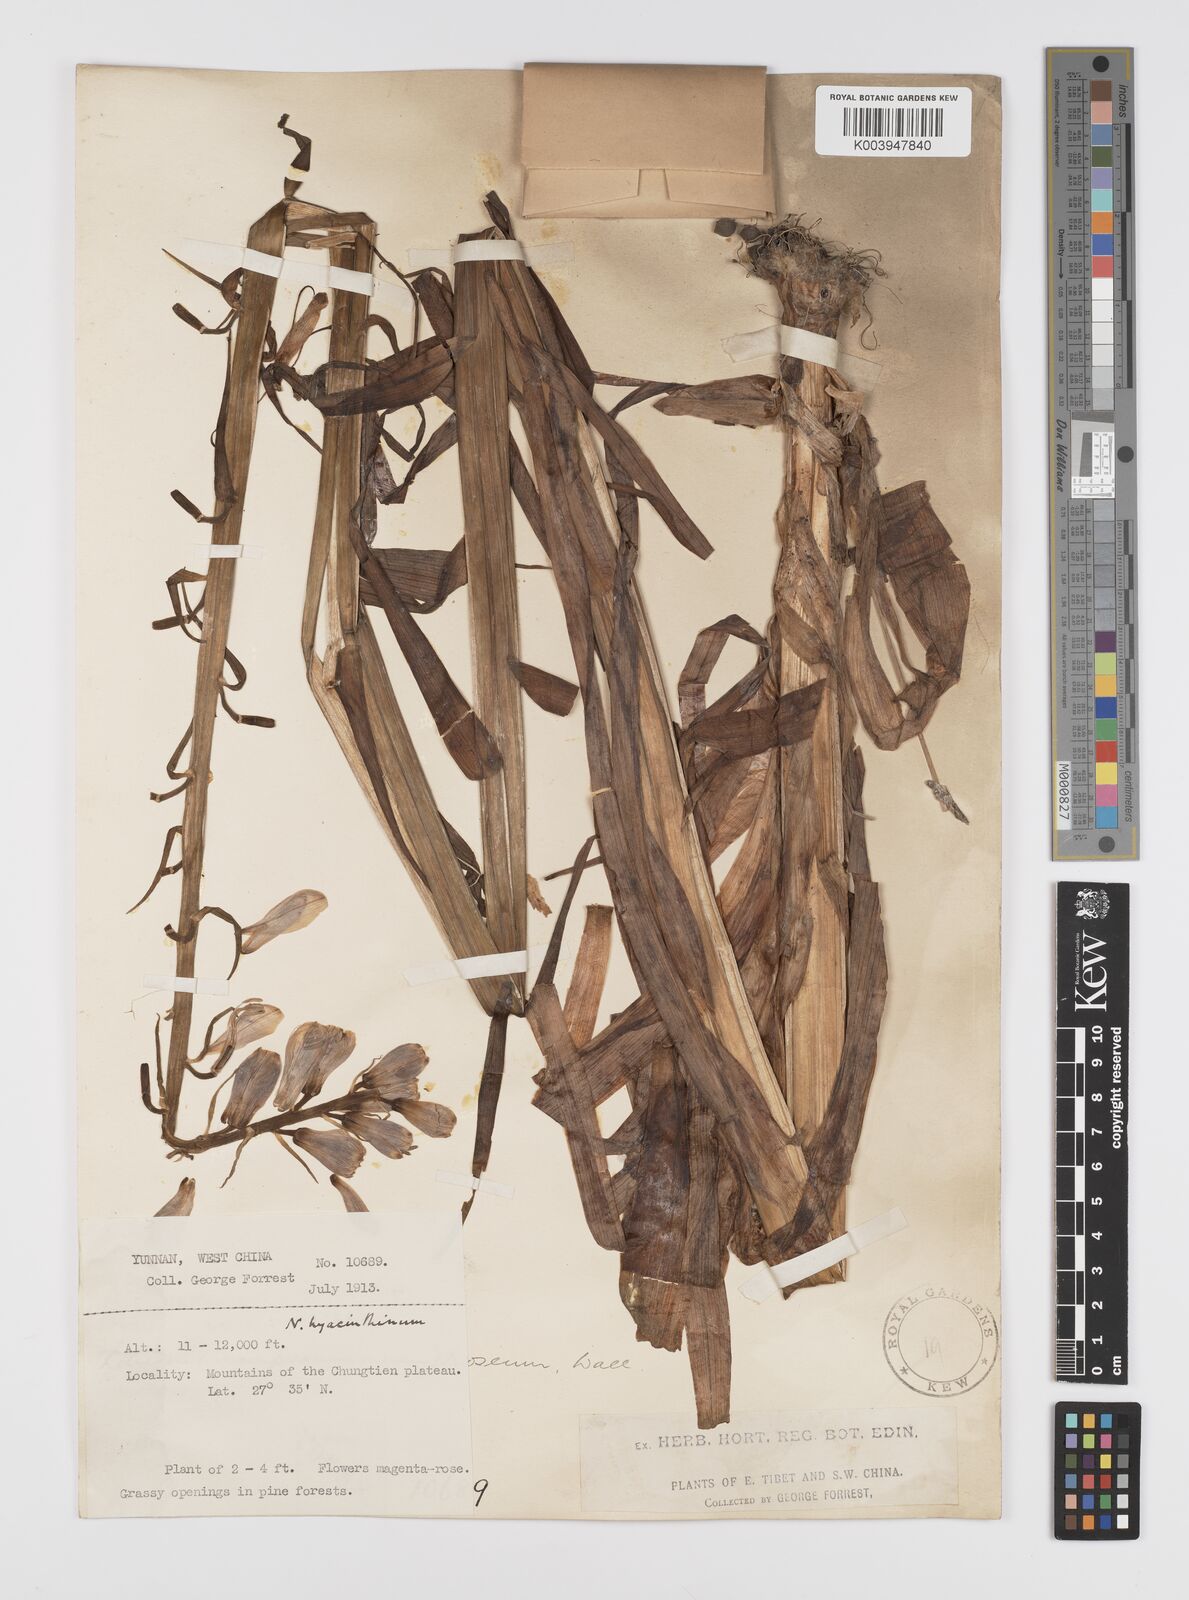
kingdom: Plantae
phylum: Tracheophyta
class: Liliopsida
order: Liliales
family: Liliaceae
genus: Notholirion
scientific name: Notholirion bulbuliferum
